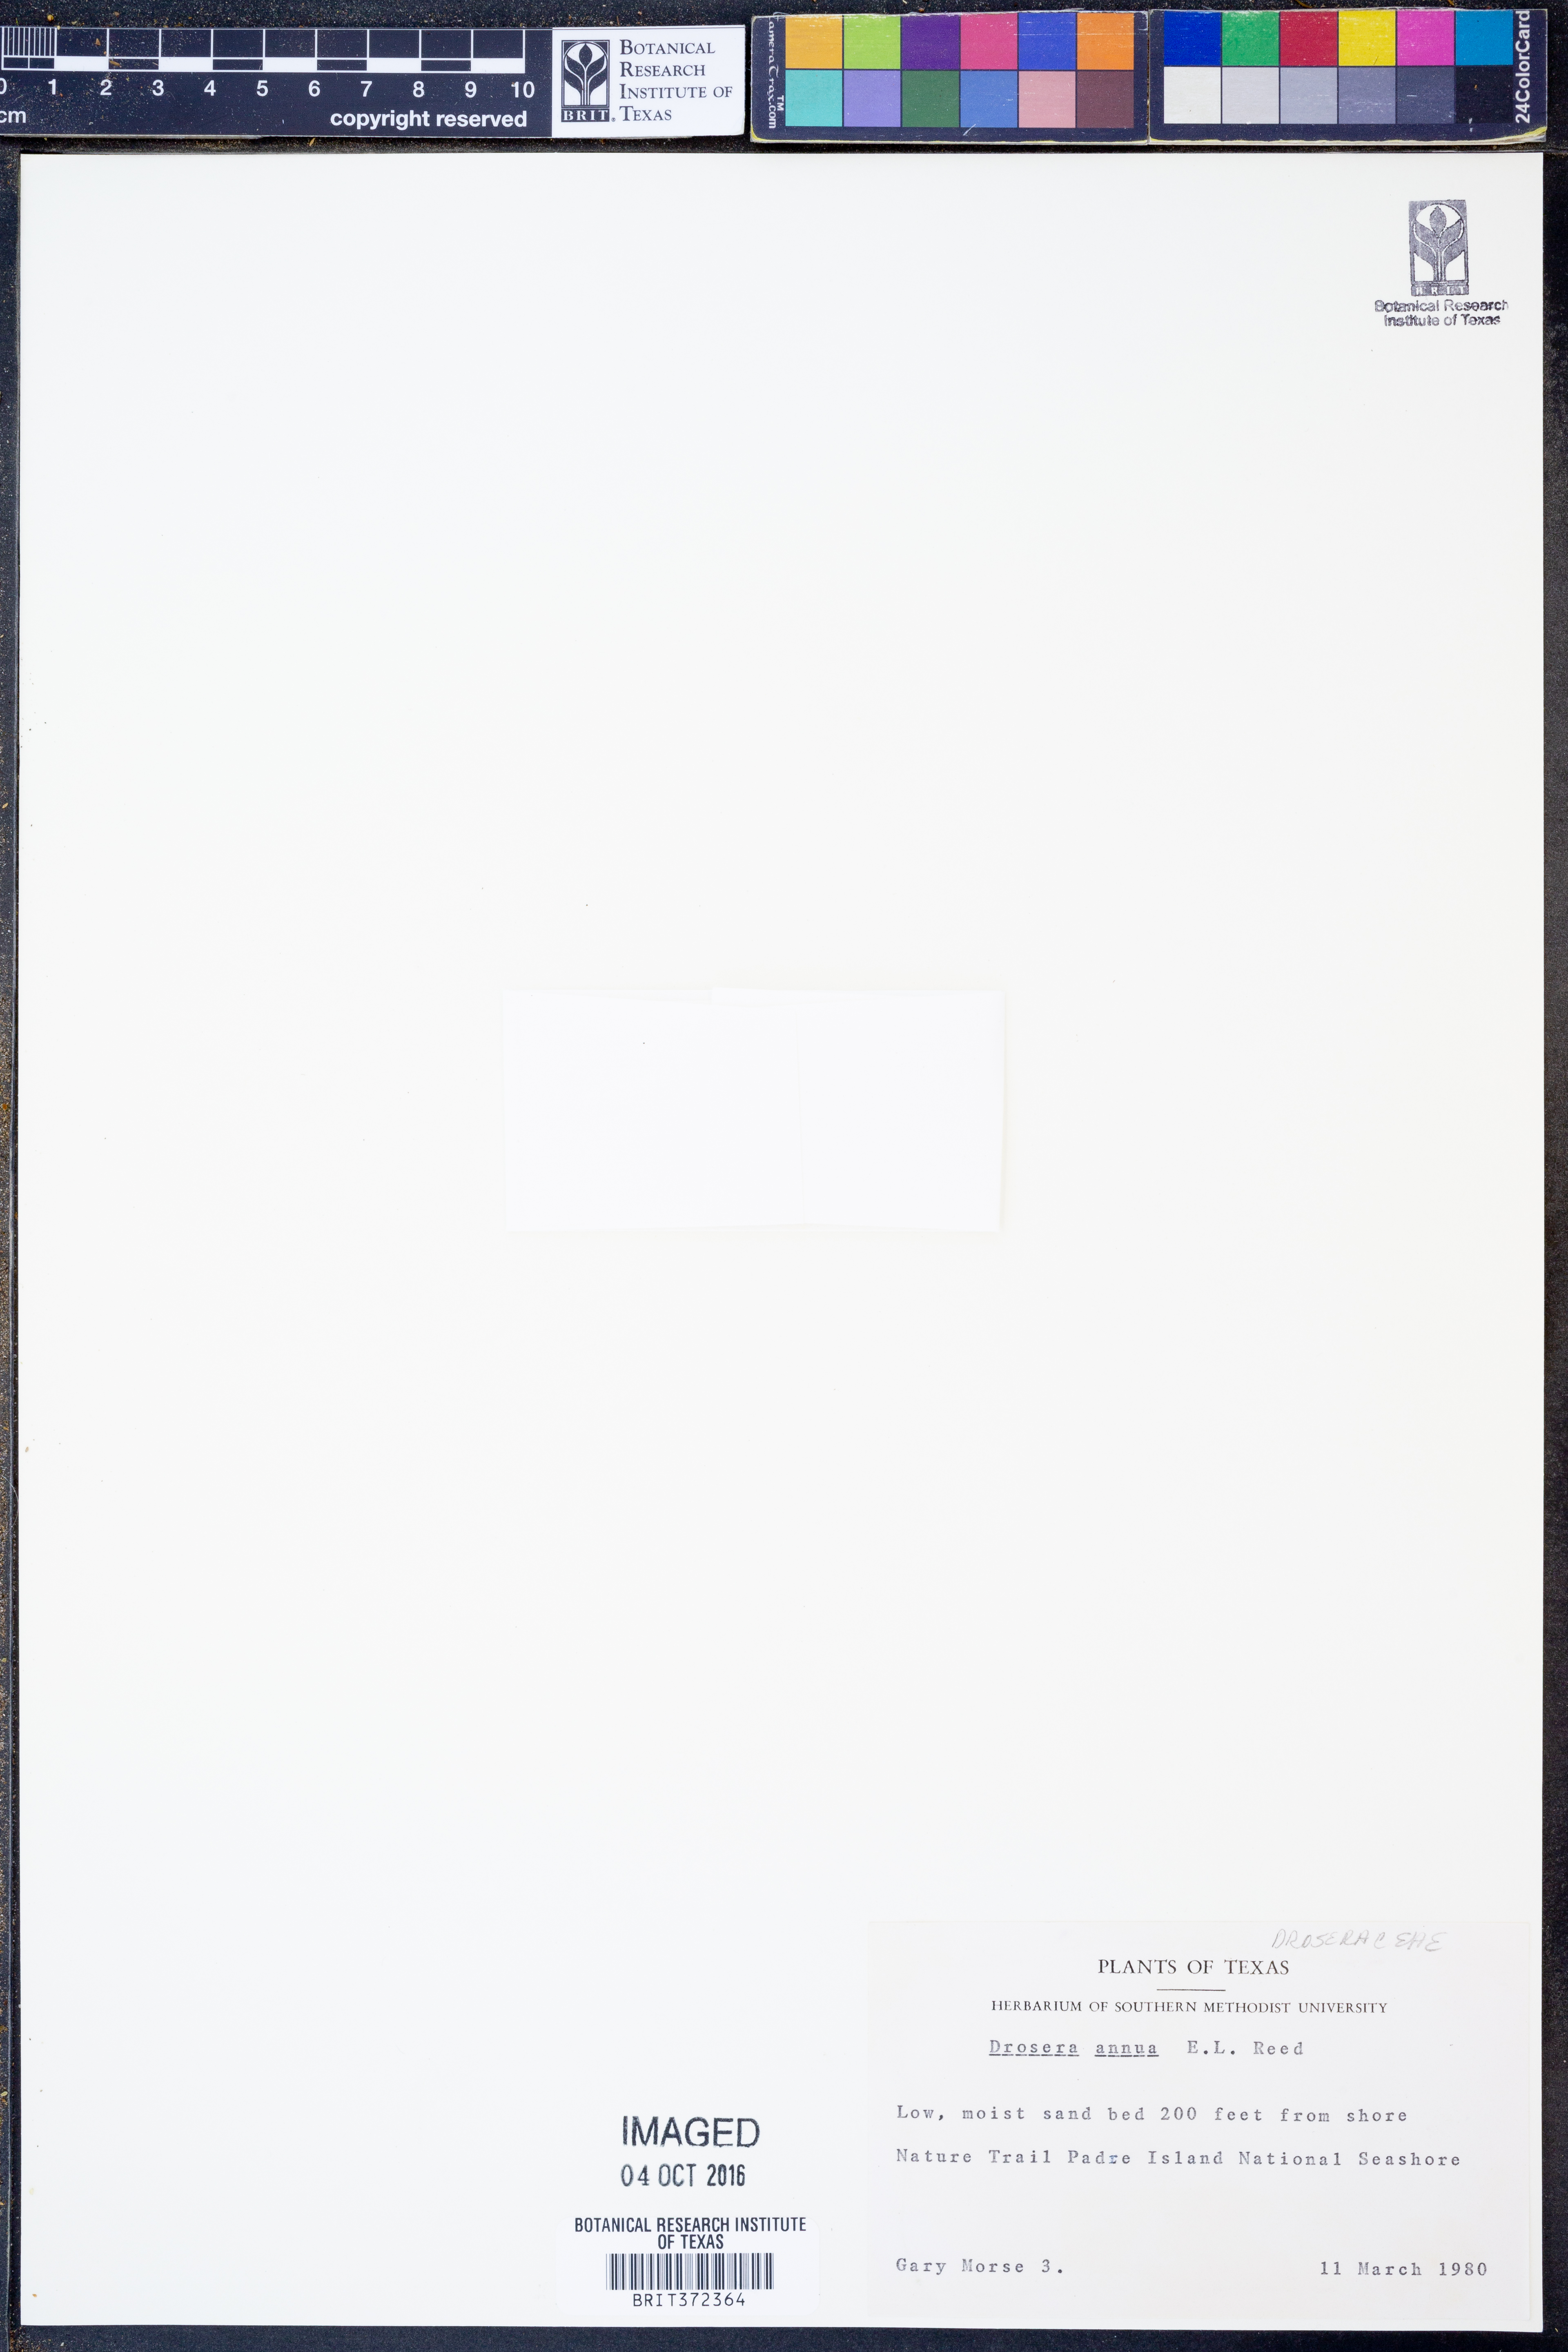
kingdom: Plantae
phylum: Tracheophyta
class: Magnoliopsida
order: Caryophyllales
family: Droseraceae
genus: Drosera
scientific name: Drosera brevifolia
